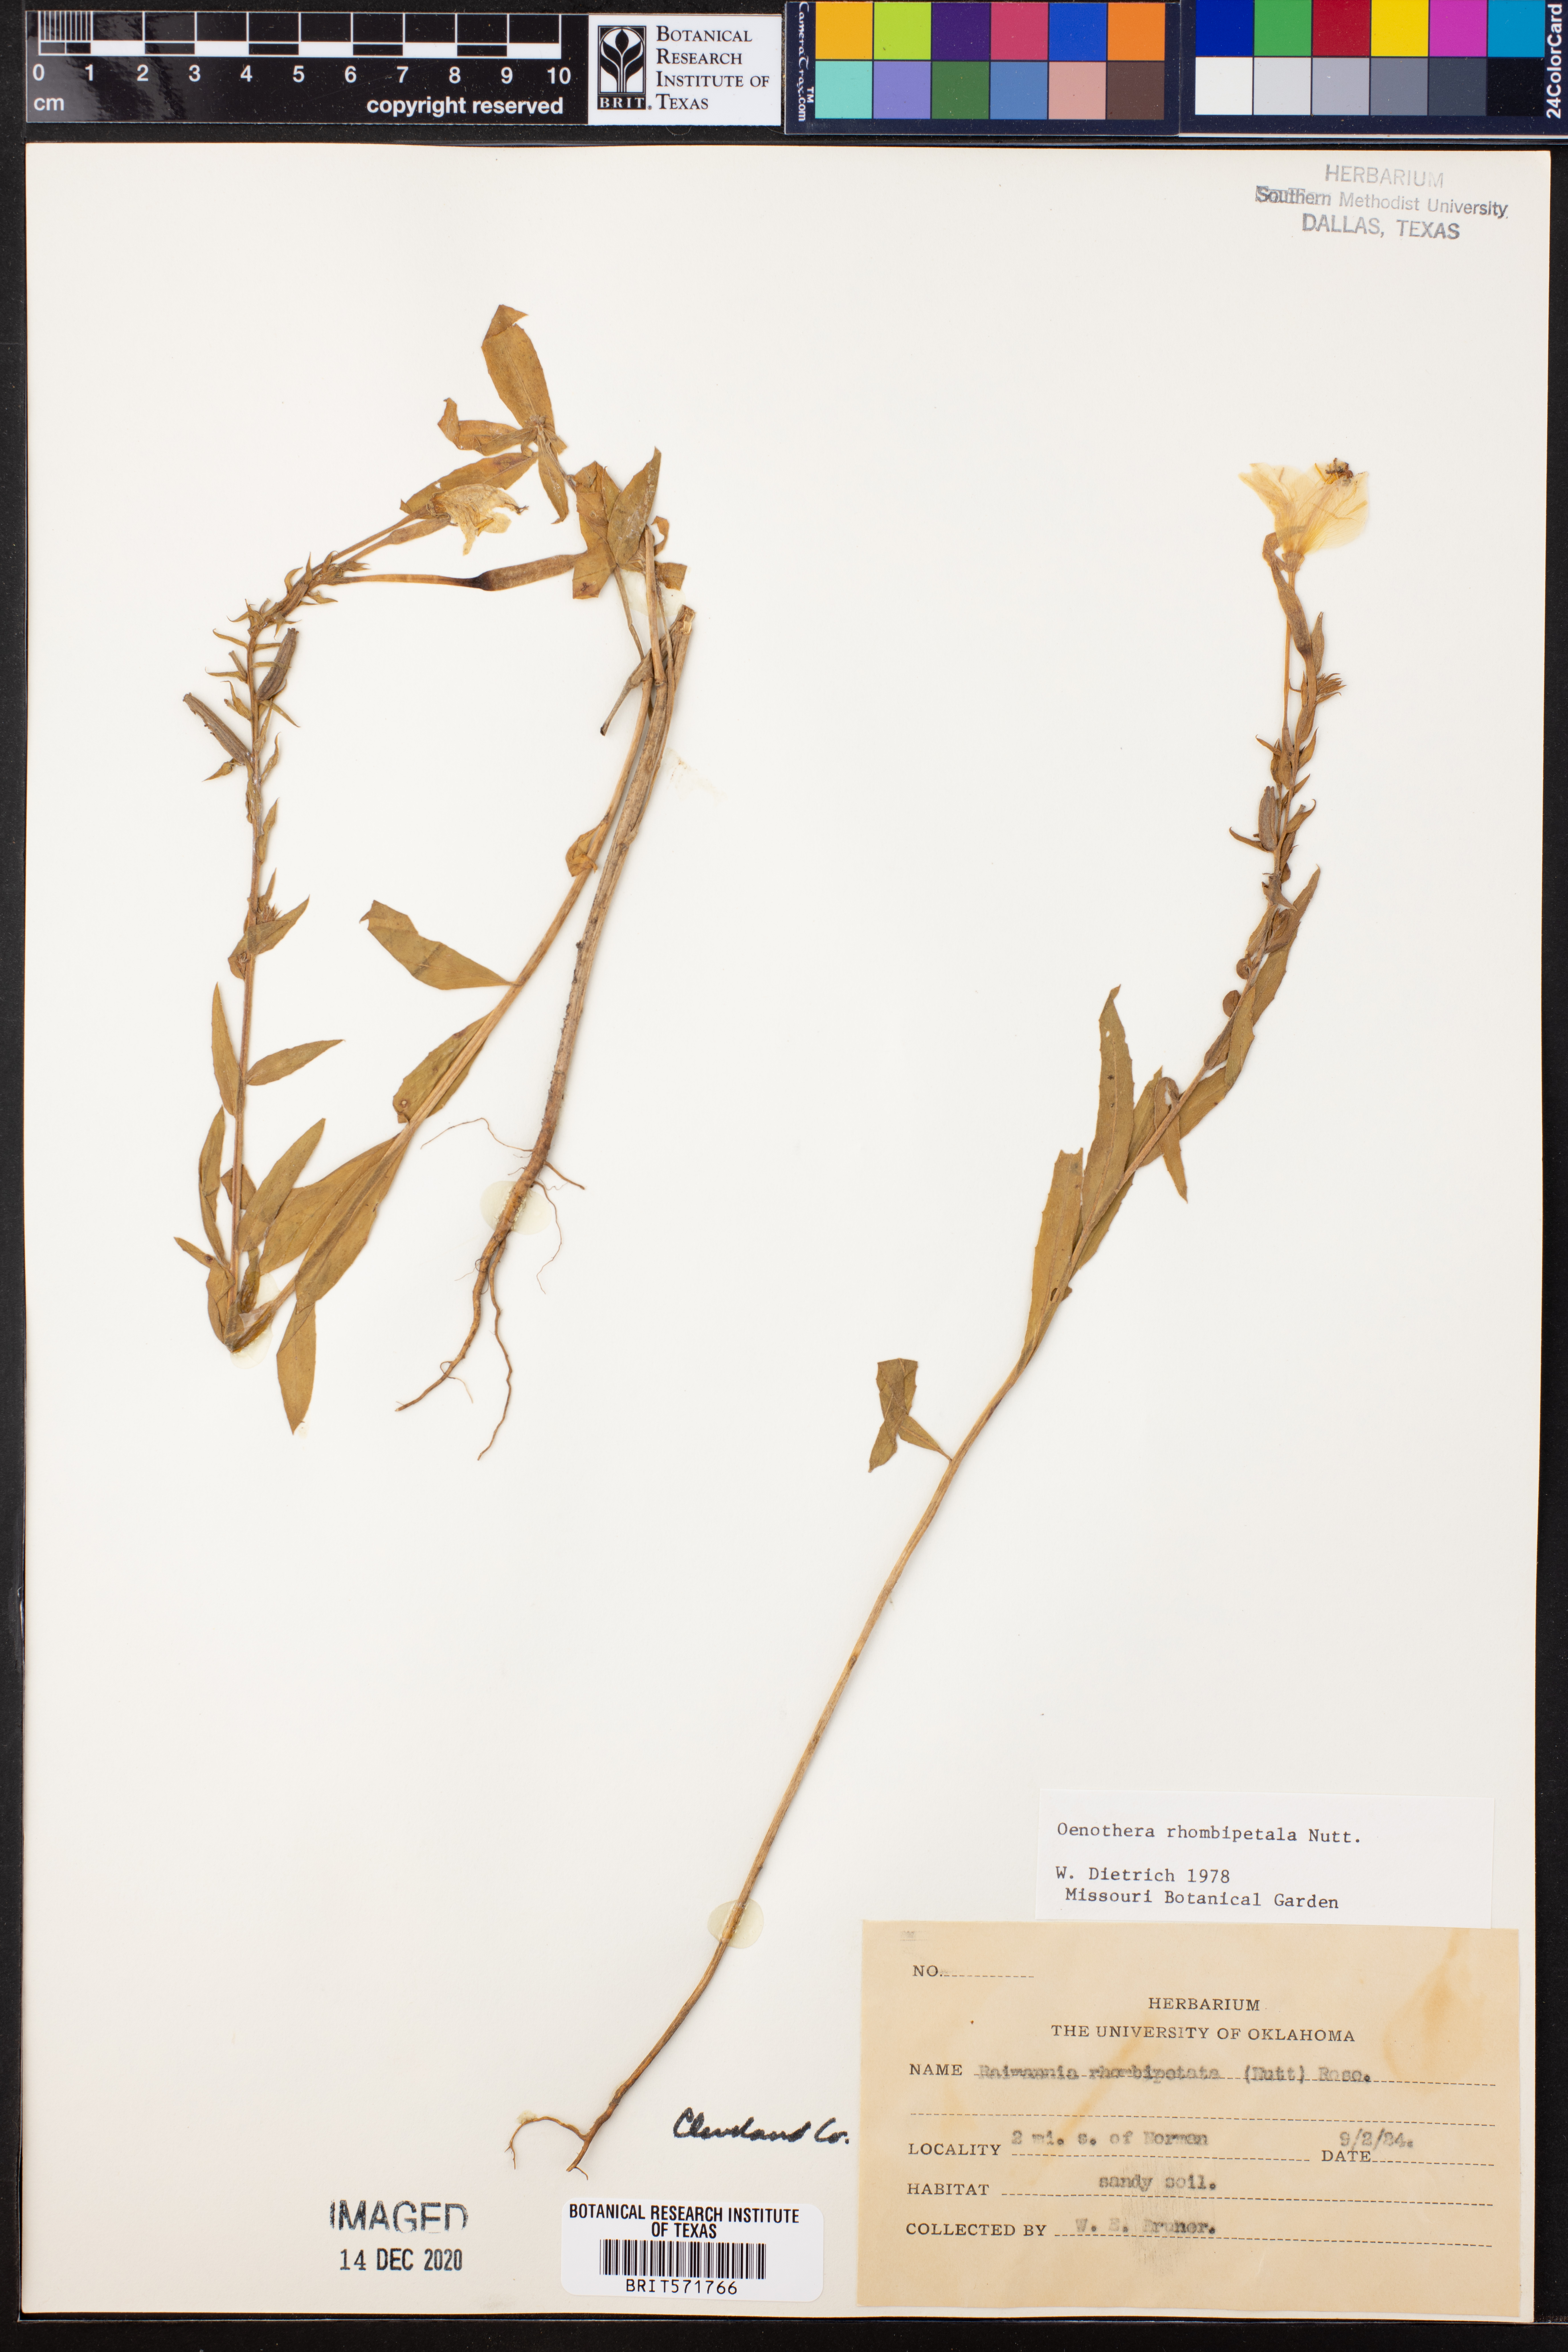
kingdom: Plantae
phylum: Tracheophyta
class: Magnoliopsida
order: Myrtales
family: Onagraceae
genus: Oenothera
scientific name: Oenothera rhombipetala
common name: Four-points evening-primrose
